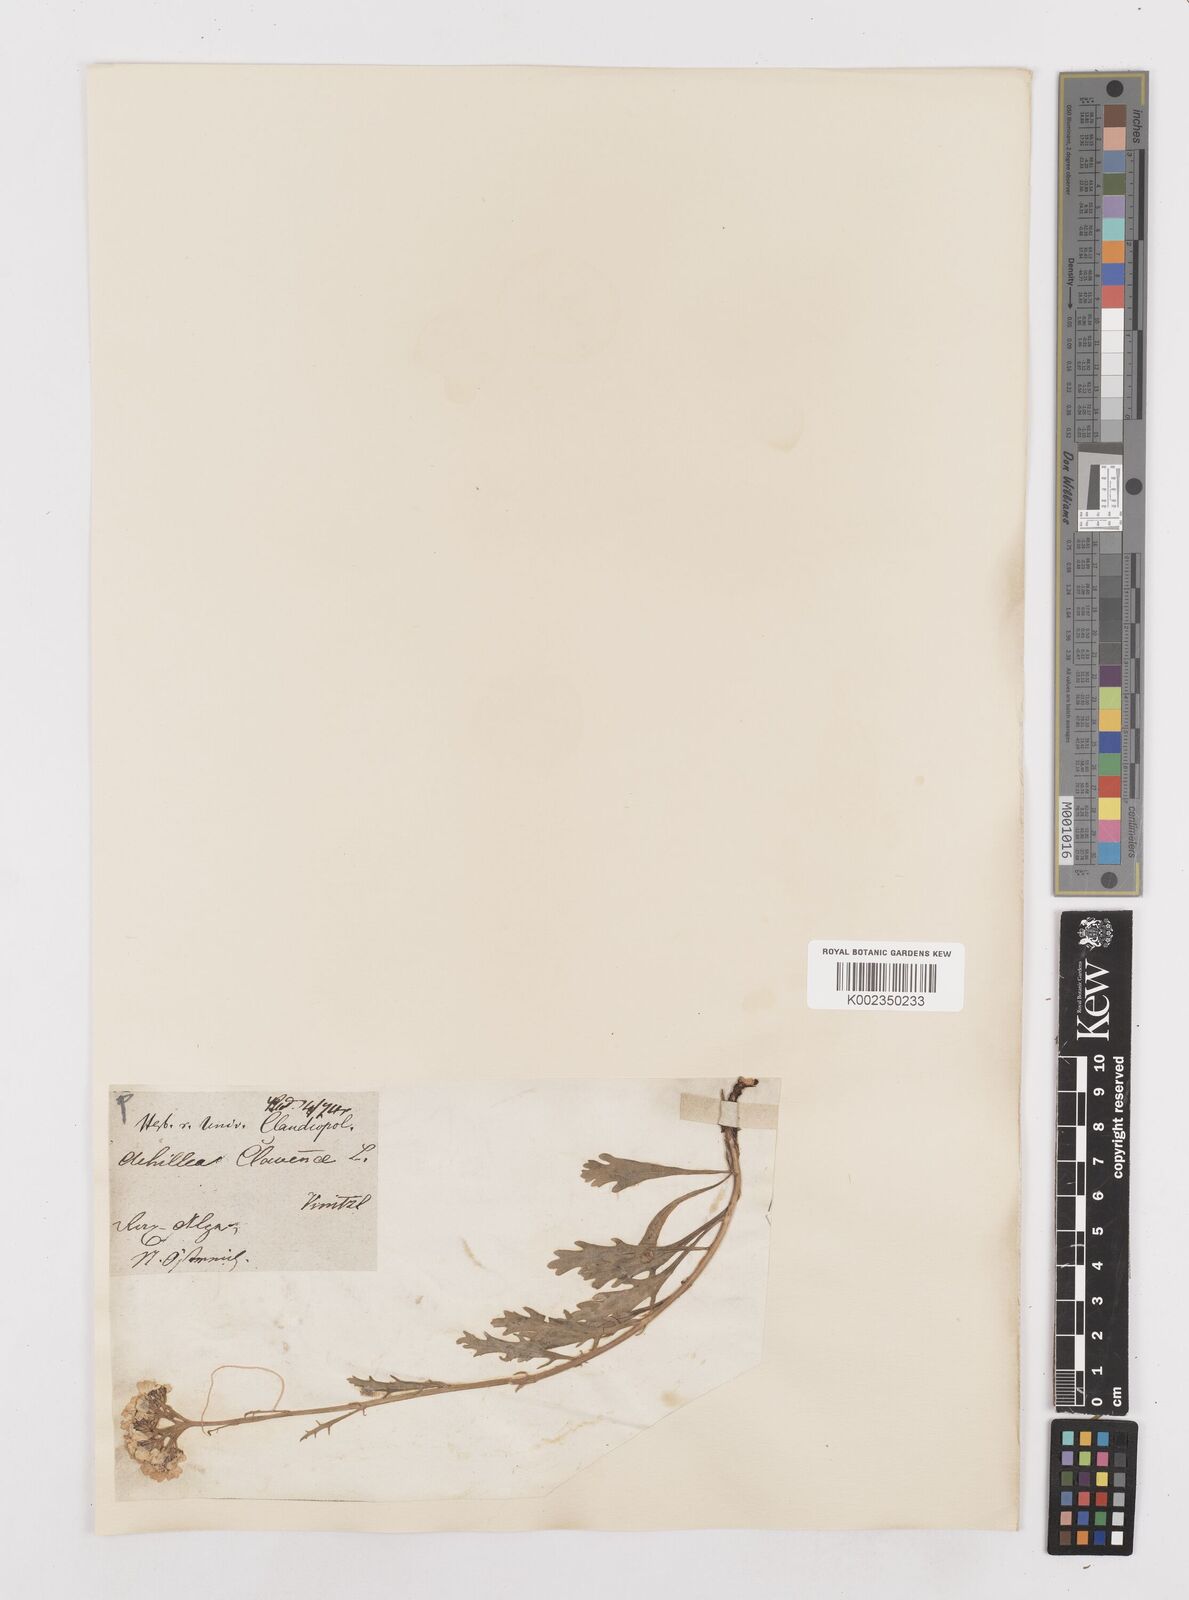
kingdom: Plantae
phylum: Tracheophyta
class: Magnoliopsida
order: Asterales
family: Asteraceae
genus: Achillea
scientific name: Achillea clavennae
